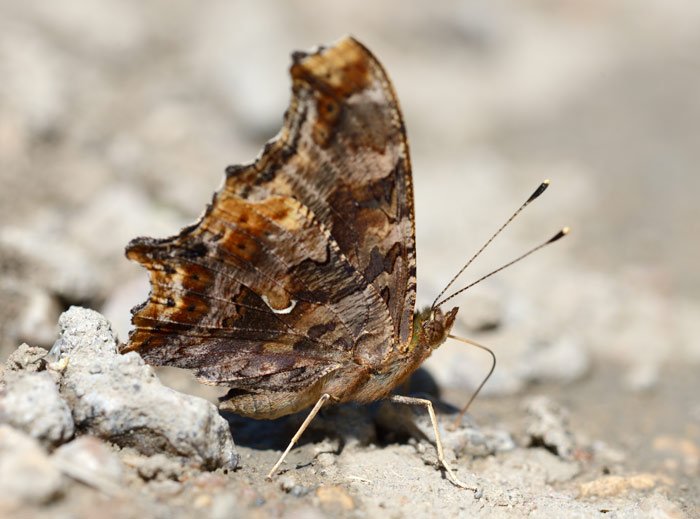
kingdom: Animalia
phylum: Arthropoda
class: Insecta
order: Lepidoptera
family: Nymphalidae
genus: Polygonia
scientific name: Polygonia comma
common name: Eastern Comma
